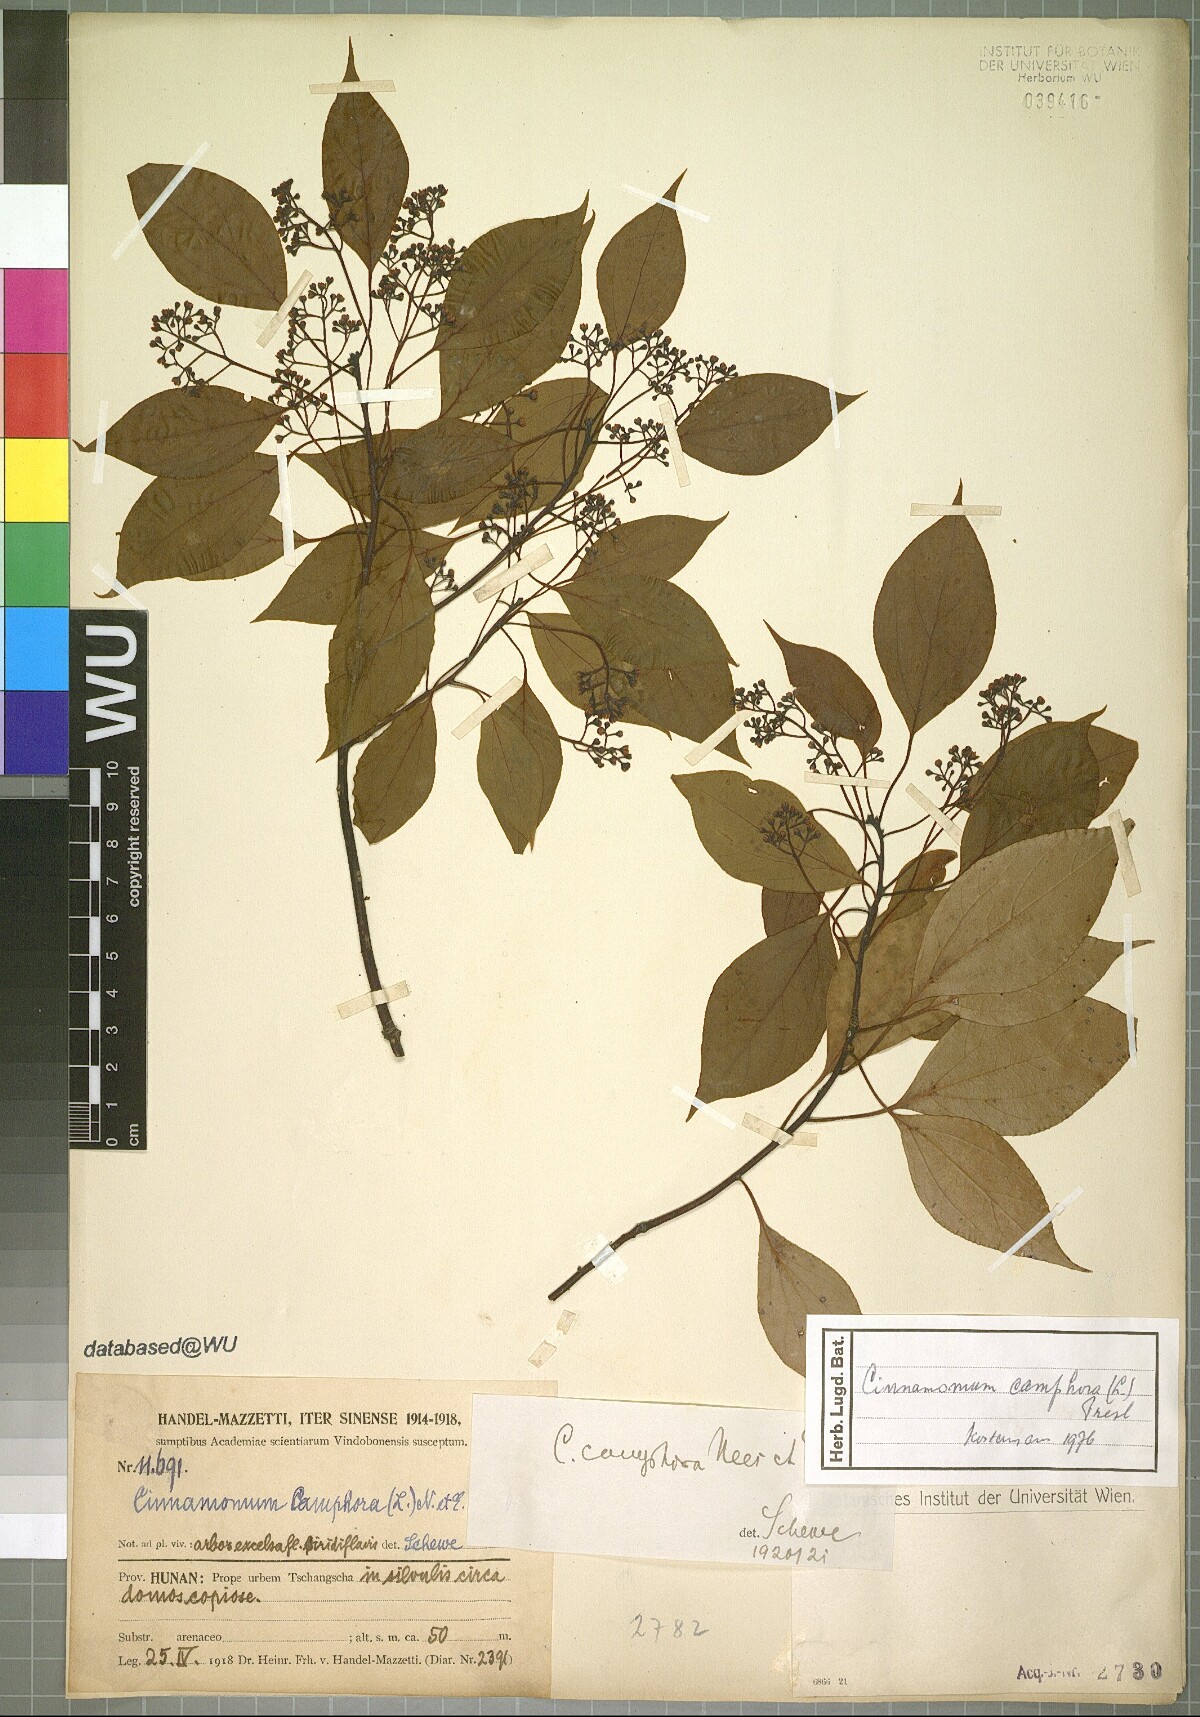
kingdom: Plantae
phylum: Tracheophyta
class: Magnoliopsida
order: Laurales
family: Lauraceae
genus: Cinnamomum
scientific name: Cinnamomum camphora
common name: Camphortree
